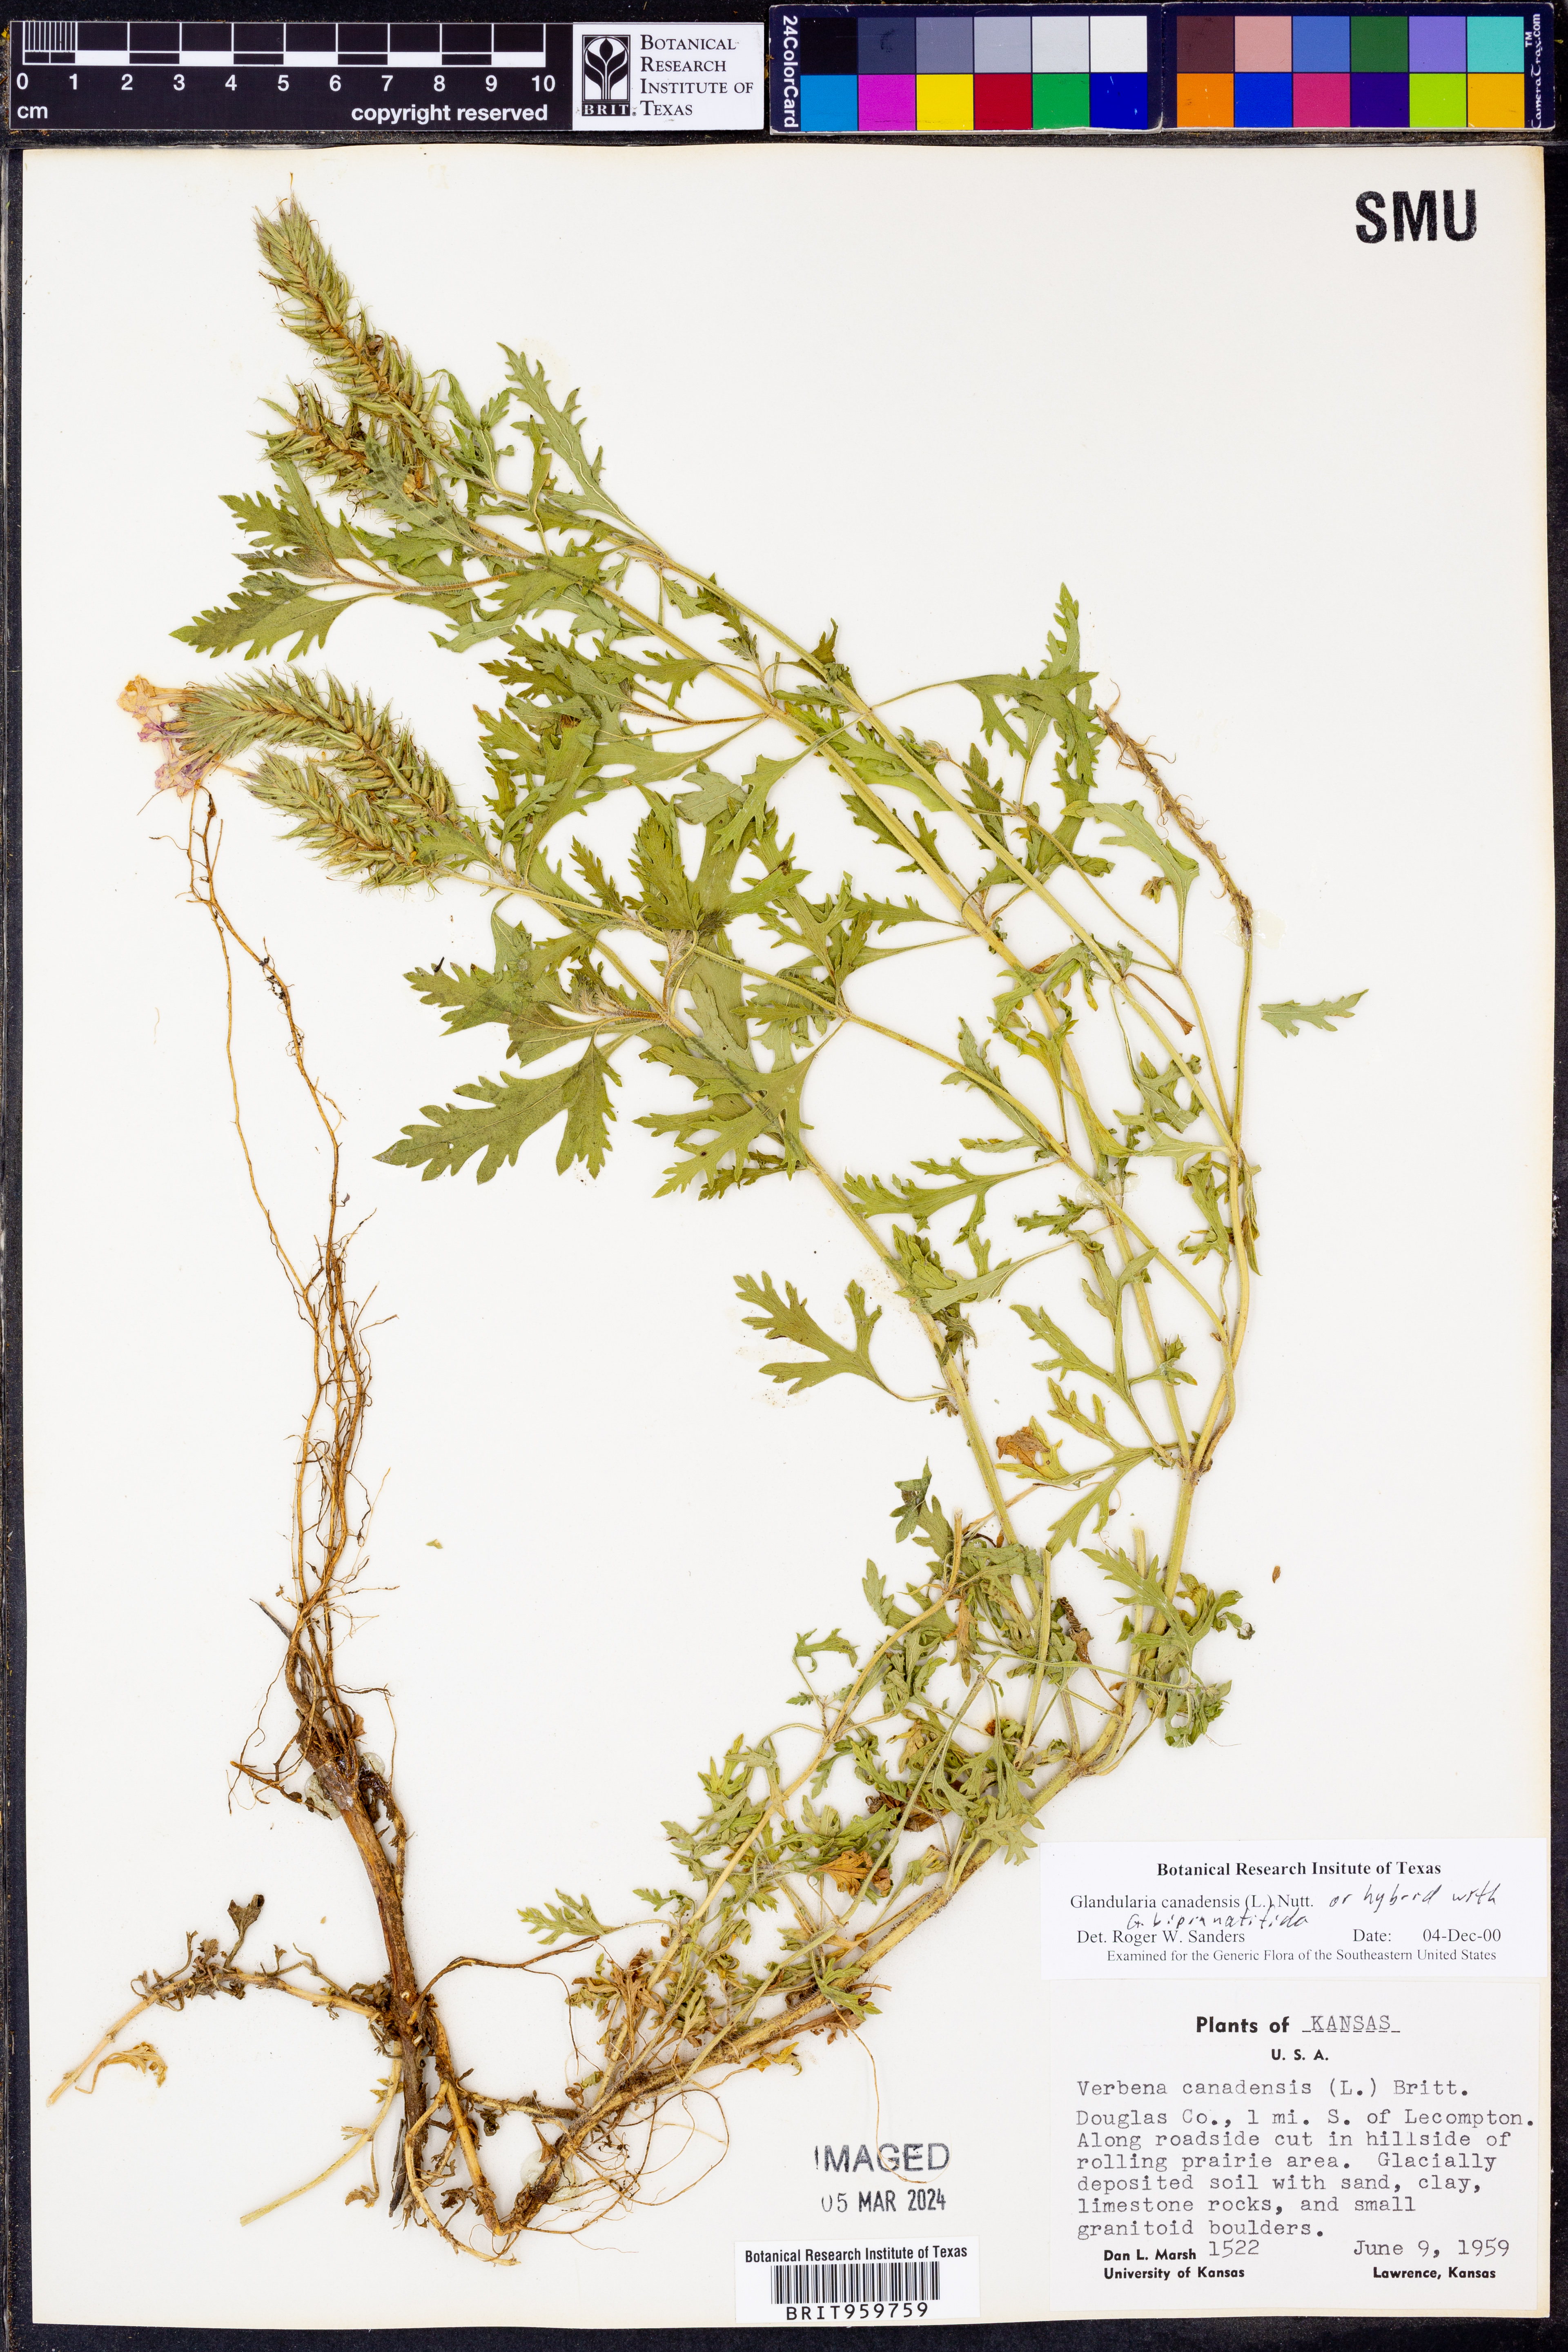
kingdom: Plantae
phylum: Tracheophyta
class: Magnoliopsida
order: Lamiales
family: Verbenaceae
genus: Verbena
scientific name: Verbena canadensis
